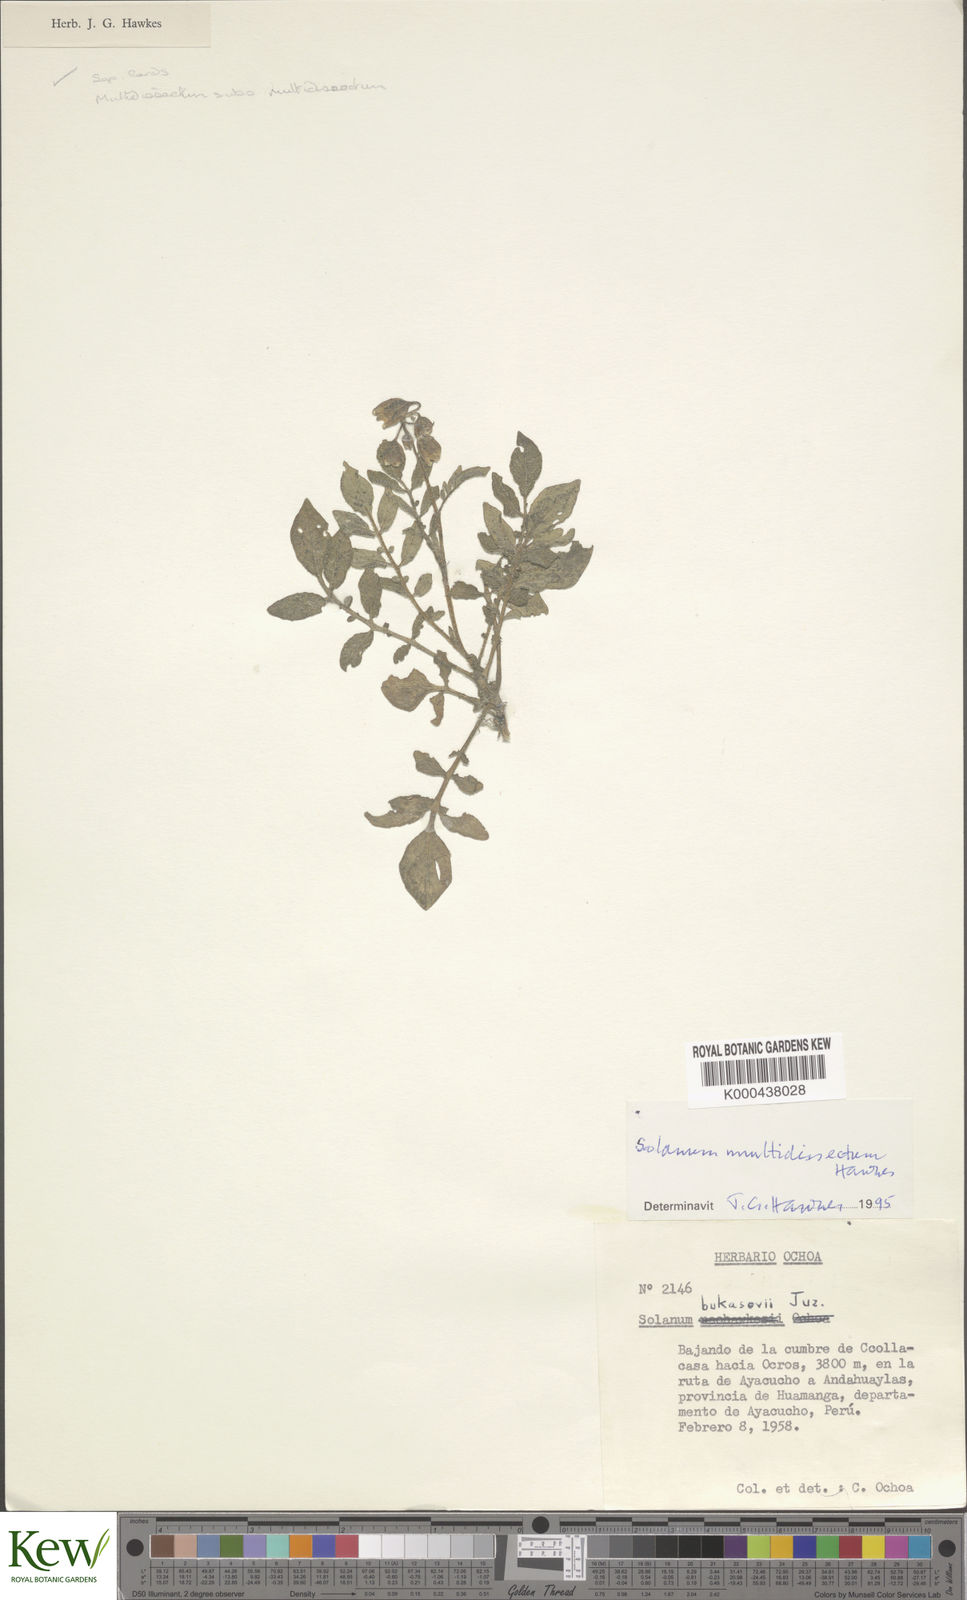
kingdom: Plantae
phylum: Tracheophyta
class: Magnoliopsida
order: Solanales
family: Solanaceae
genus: Solanum
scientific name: Solanum candolleanum
